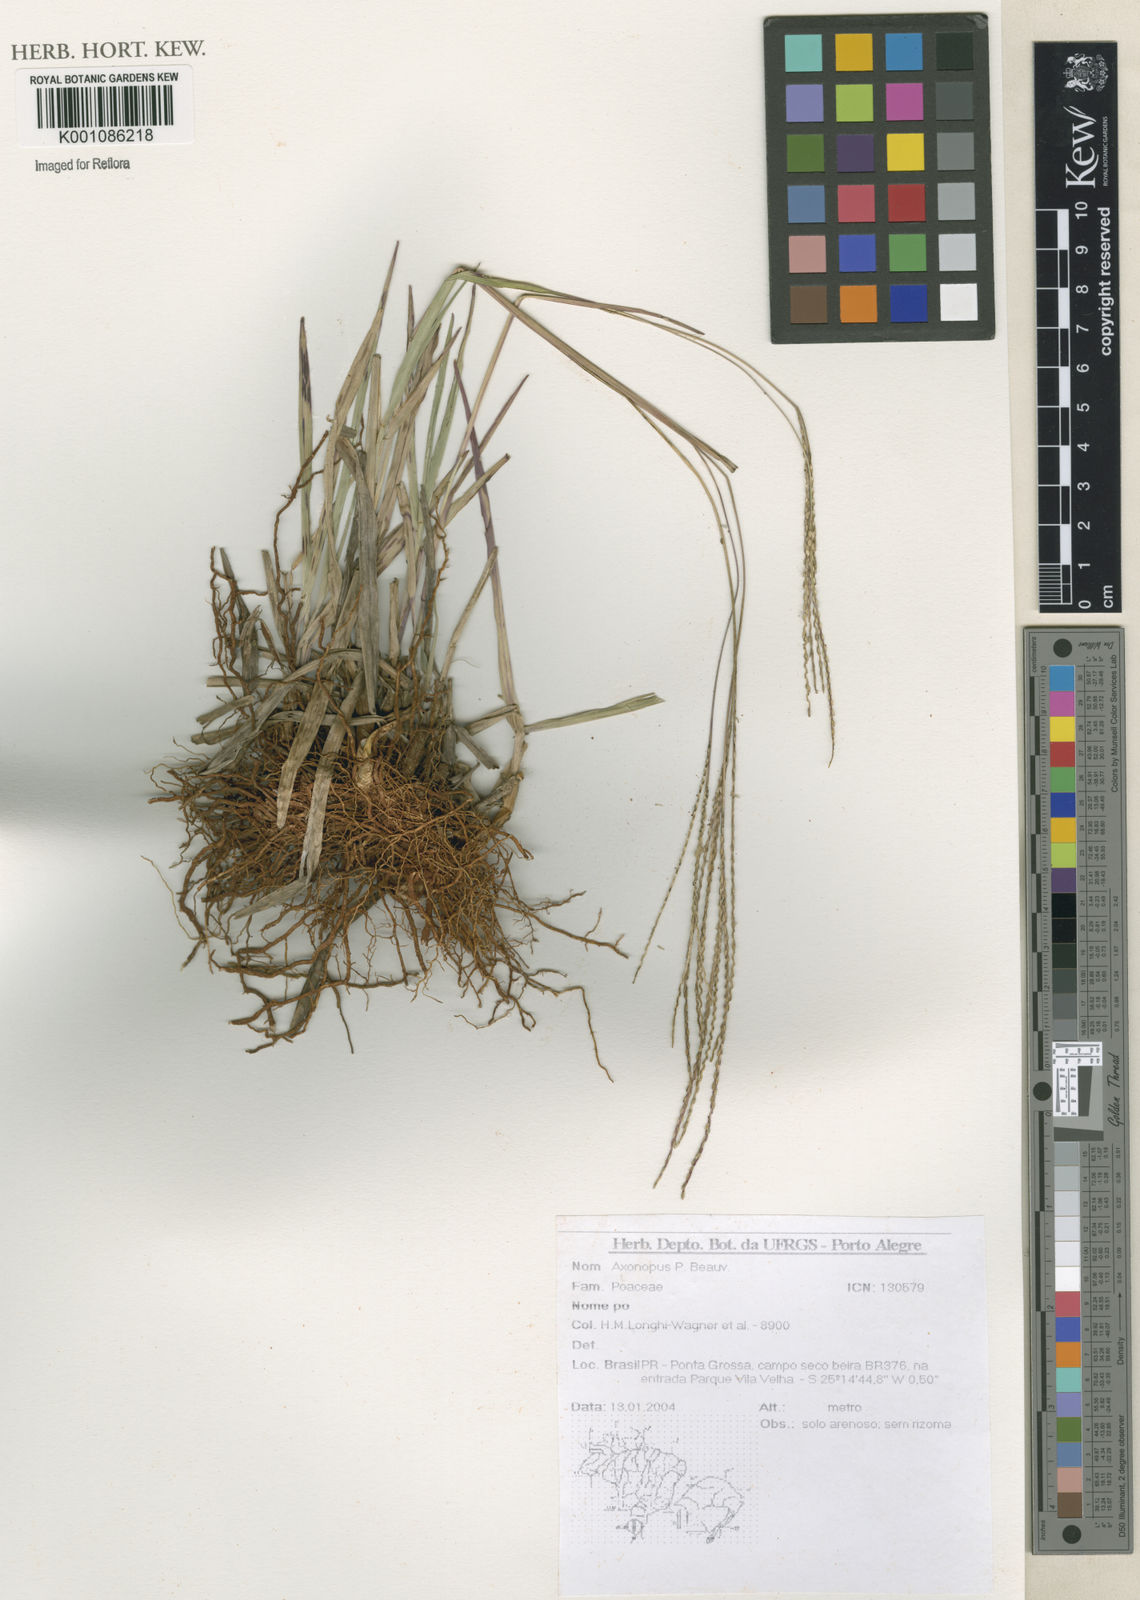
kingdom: Plantae
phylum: Tracheophyta
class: Liliopsida
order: Poales
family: Poaceae
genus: Axonopus
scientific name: Axonopus
